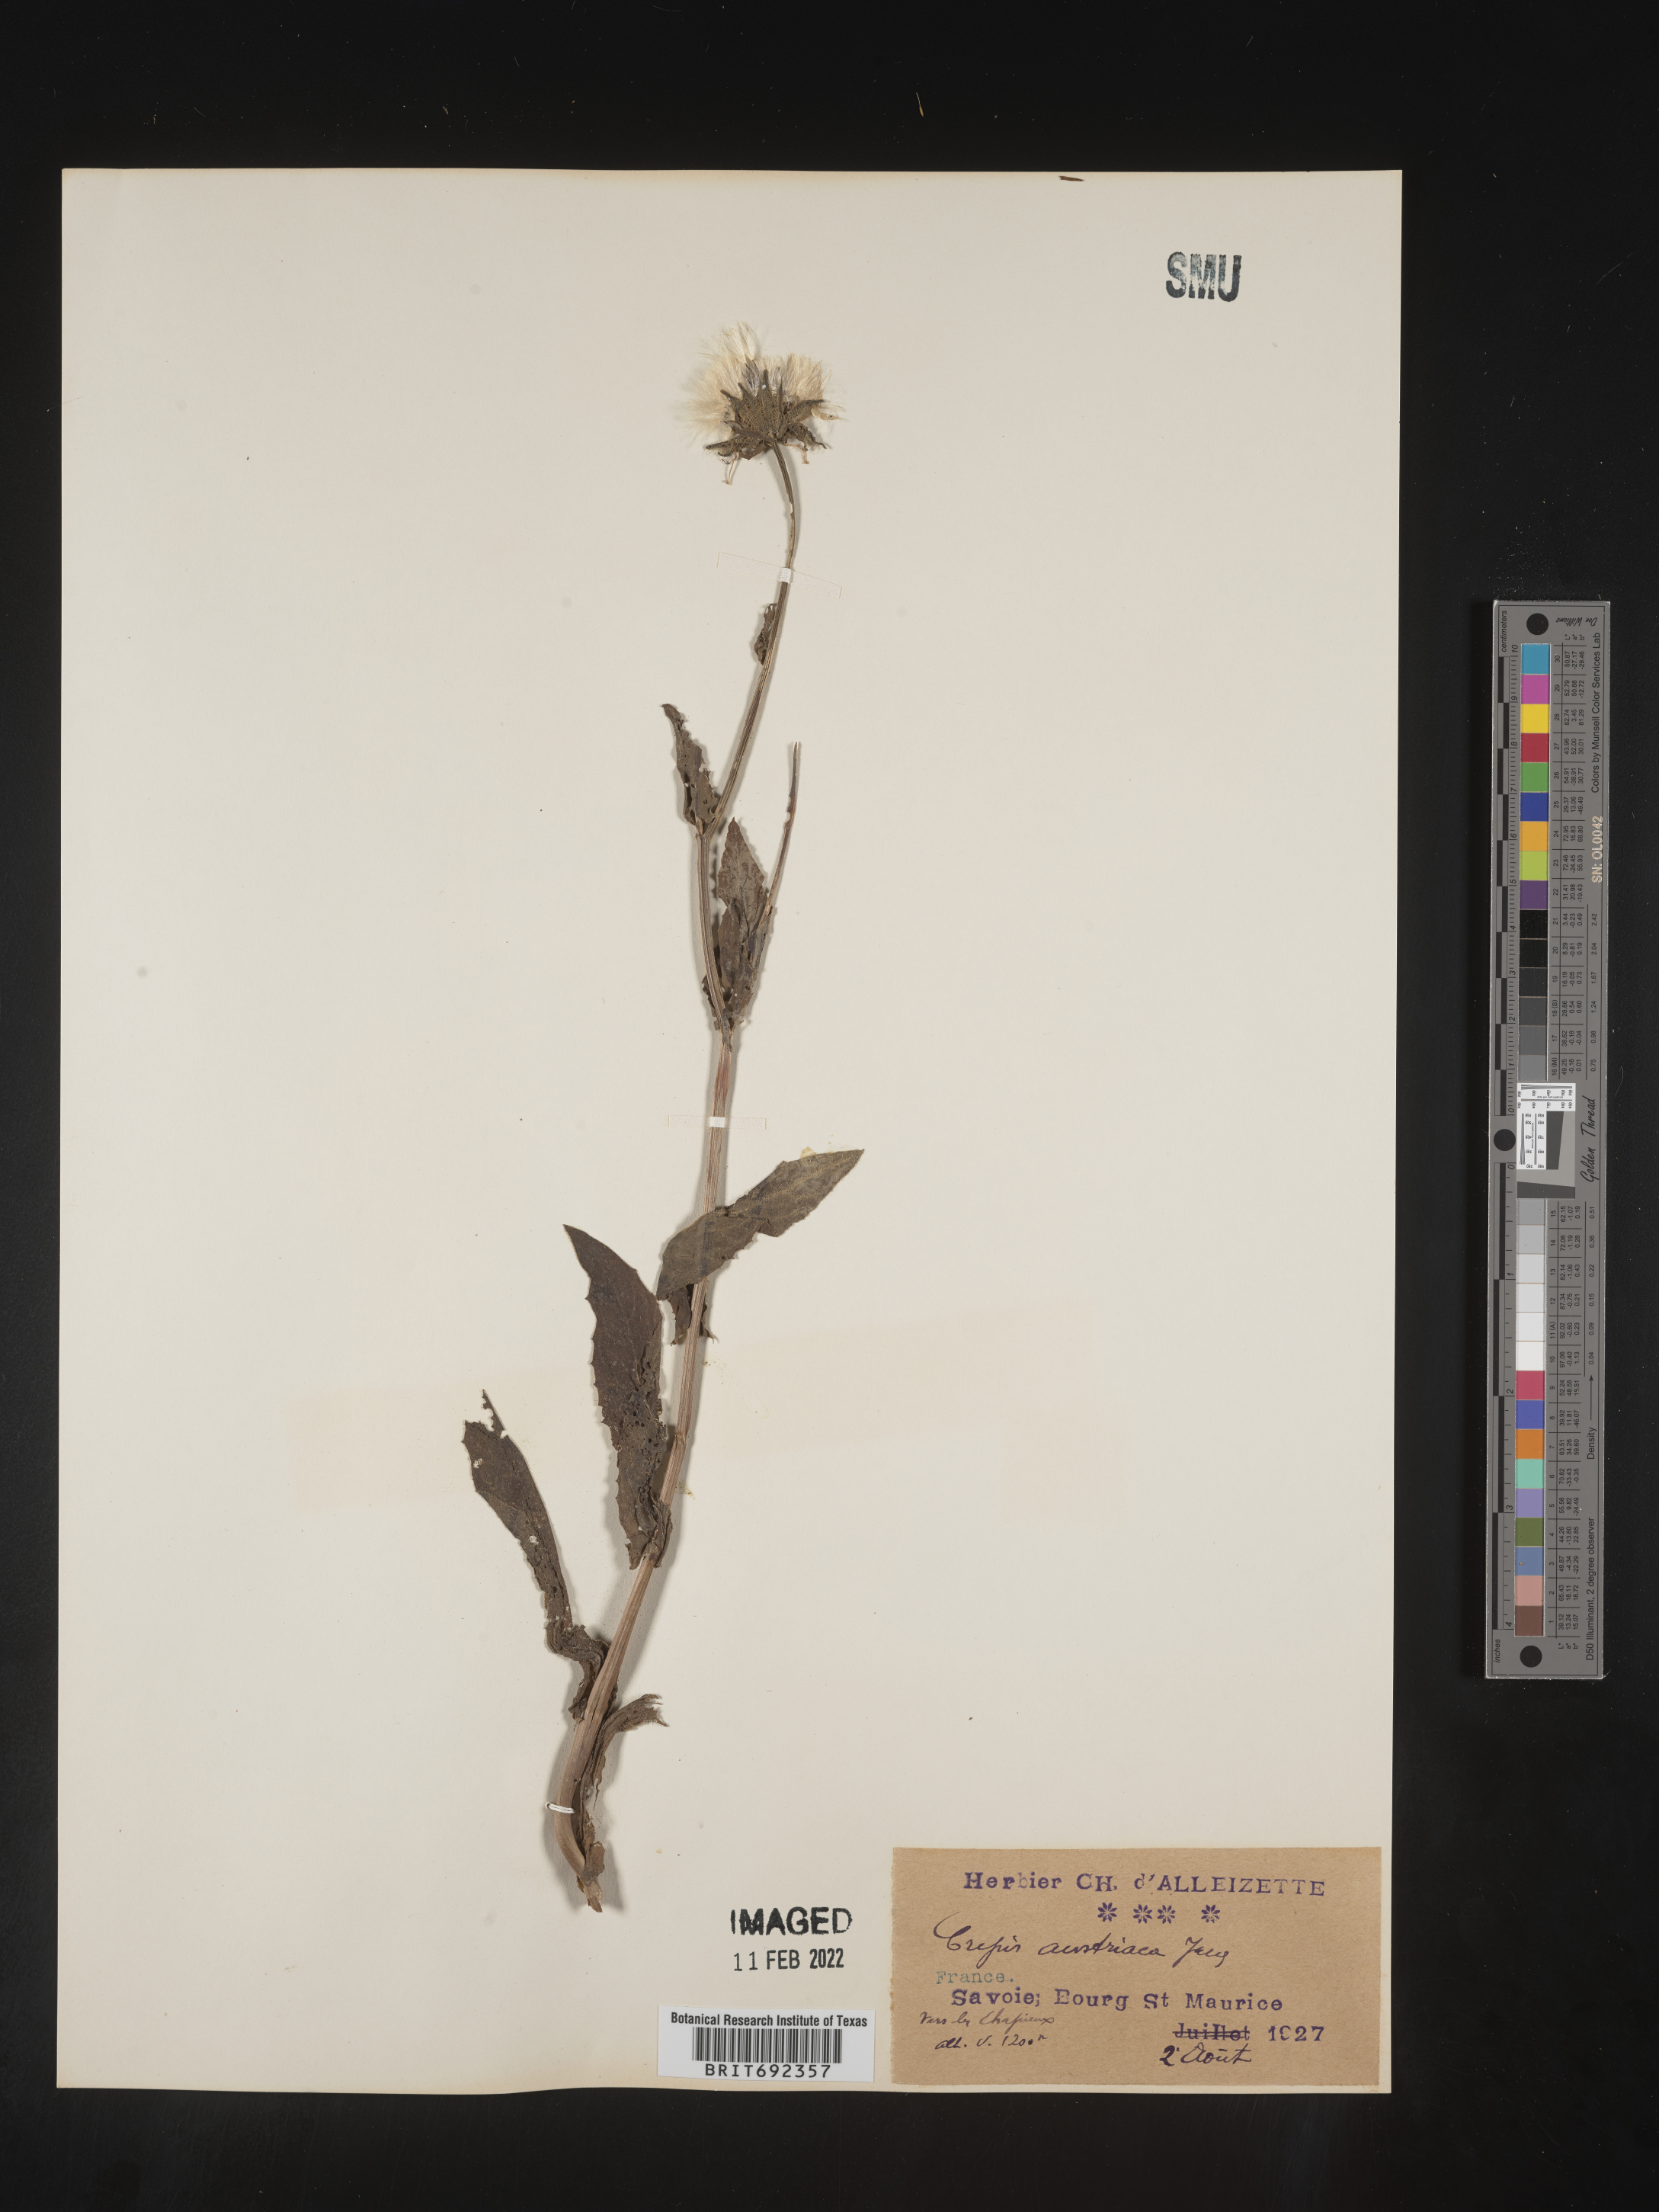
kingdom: Plantae
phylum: Tracheophyta
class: Magnoliopsida
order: Asterales
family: Asteraceae
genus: Crepis
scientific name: Crepis
